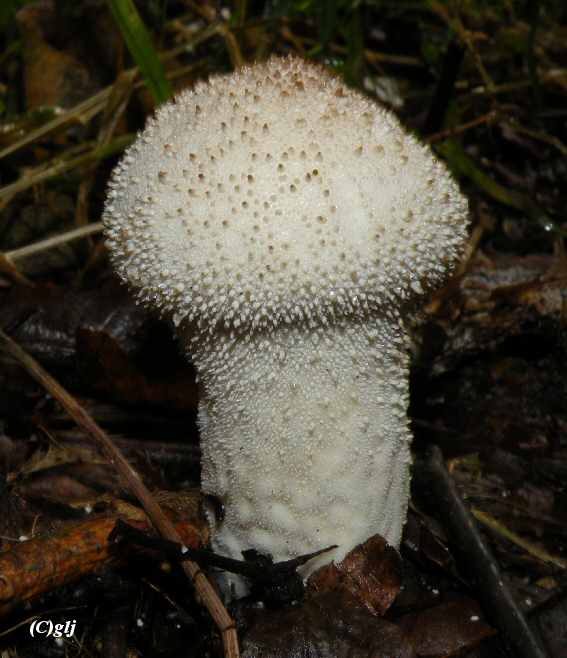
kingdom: Fungi
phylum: Basidiomycota
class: Agaricomycetes
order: Agaricales
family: Lycoperdaceae
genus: Lycoperdon
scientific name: Lycoperdon perlatum
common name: krystal-støvbold
